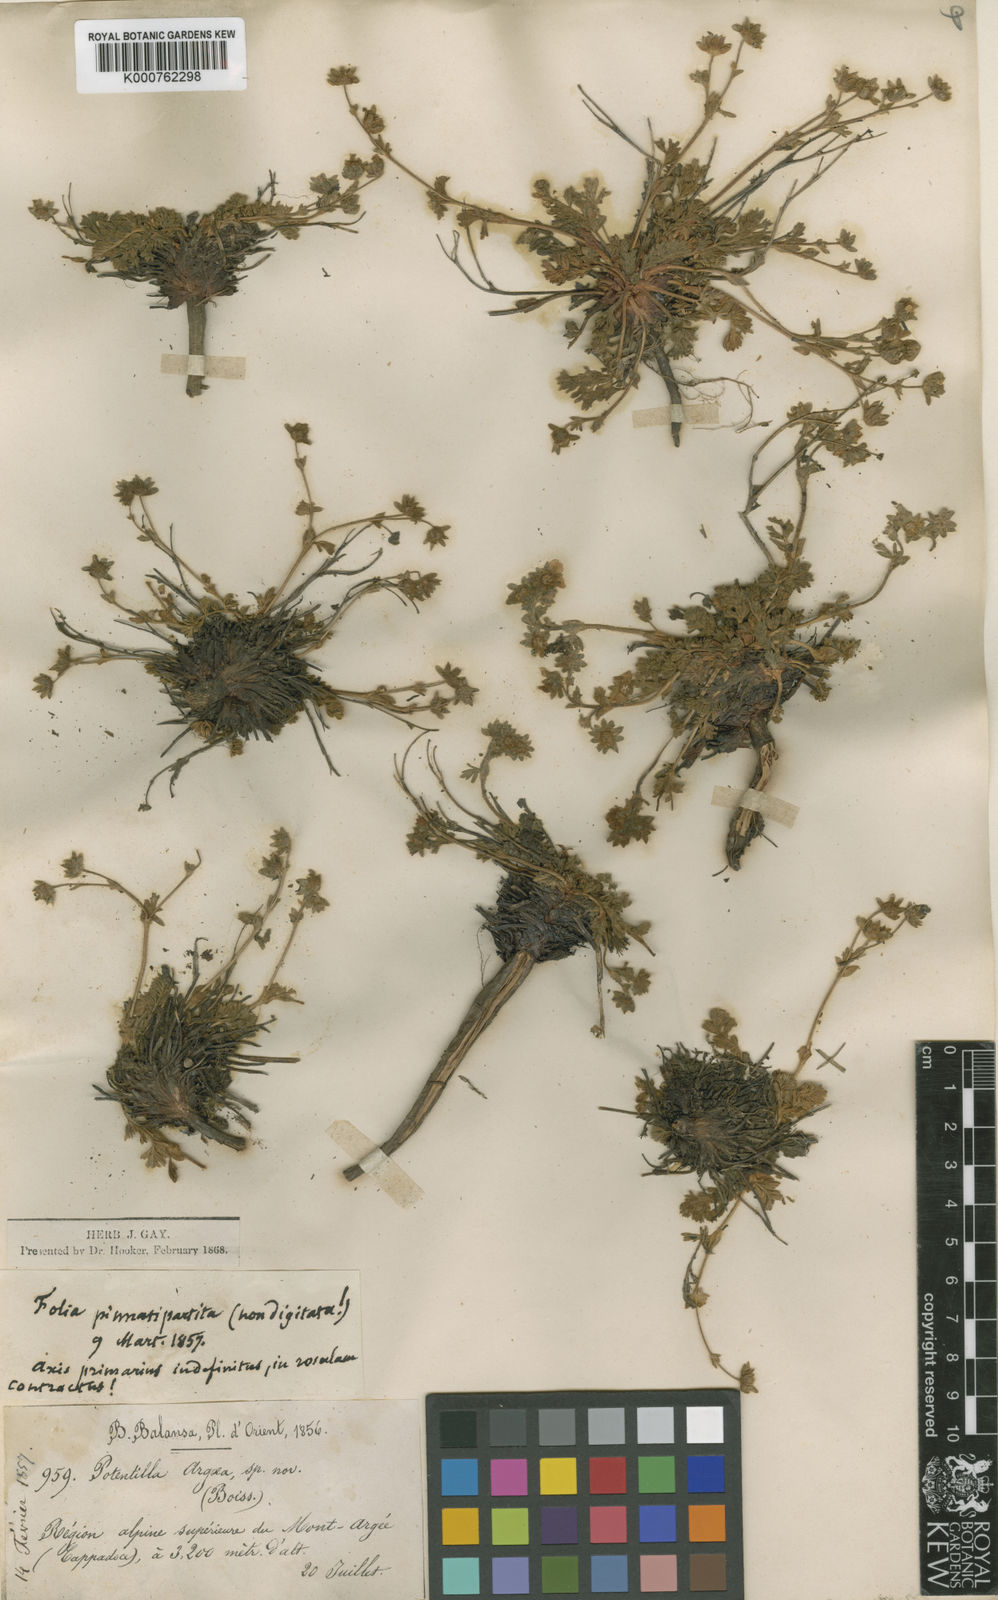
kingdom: Plantae
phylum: Tracheophyta
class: Magnoliopsida
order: Rosales
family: Rosaceae
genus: Potentilla
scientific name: Potentilla argaea
